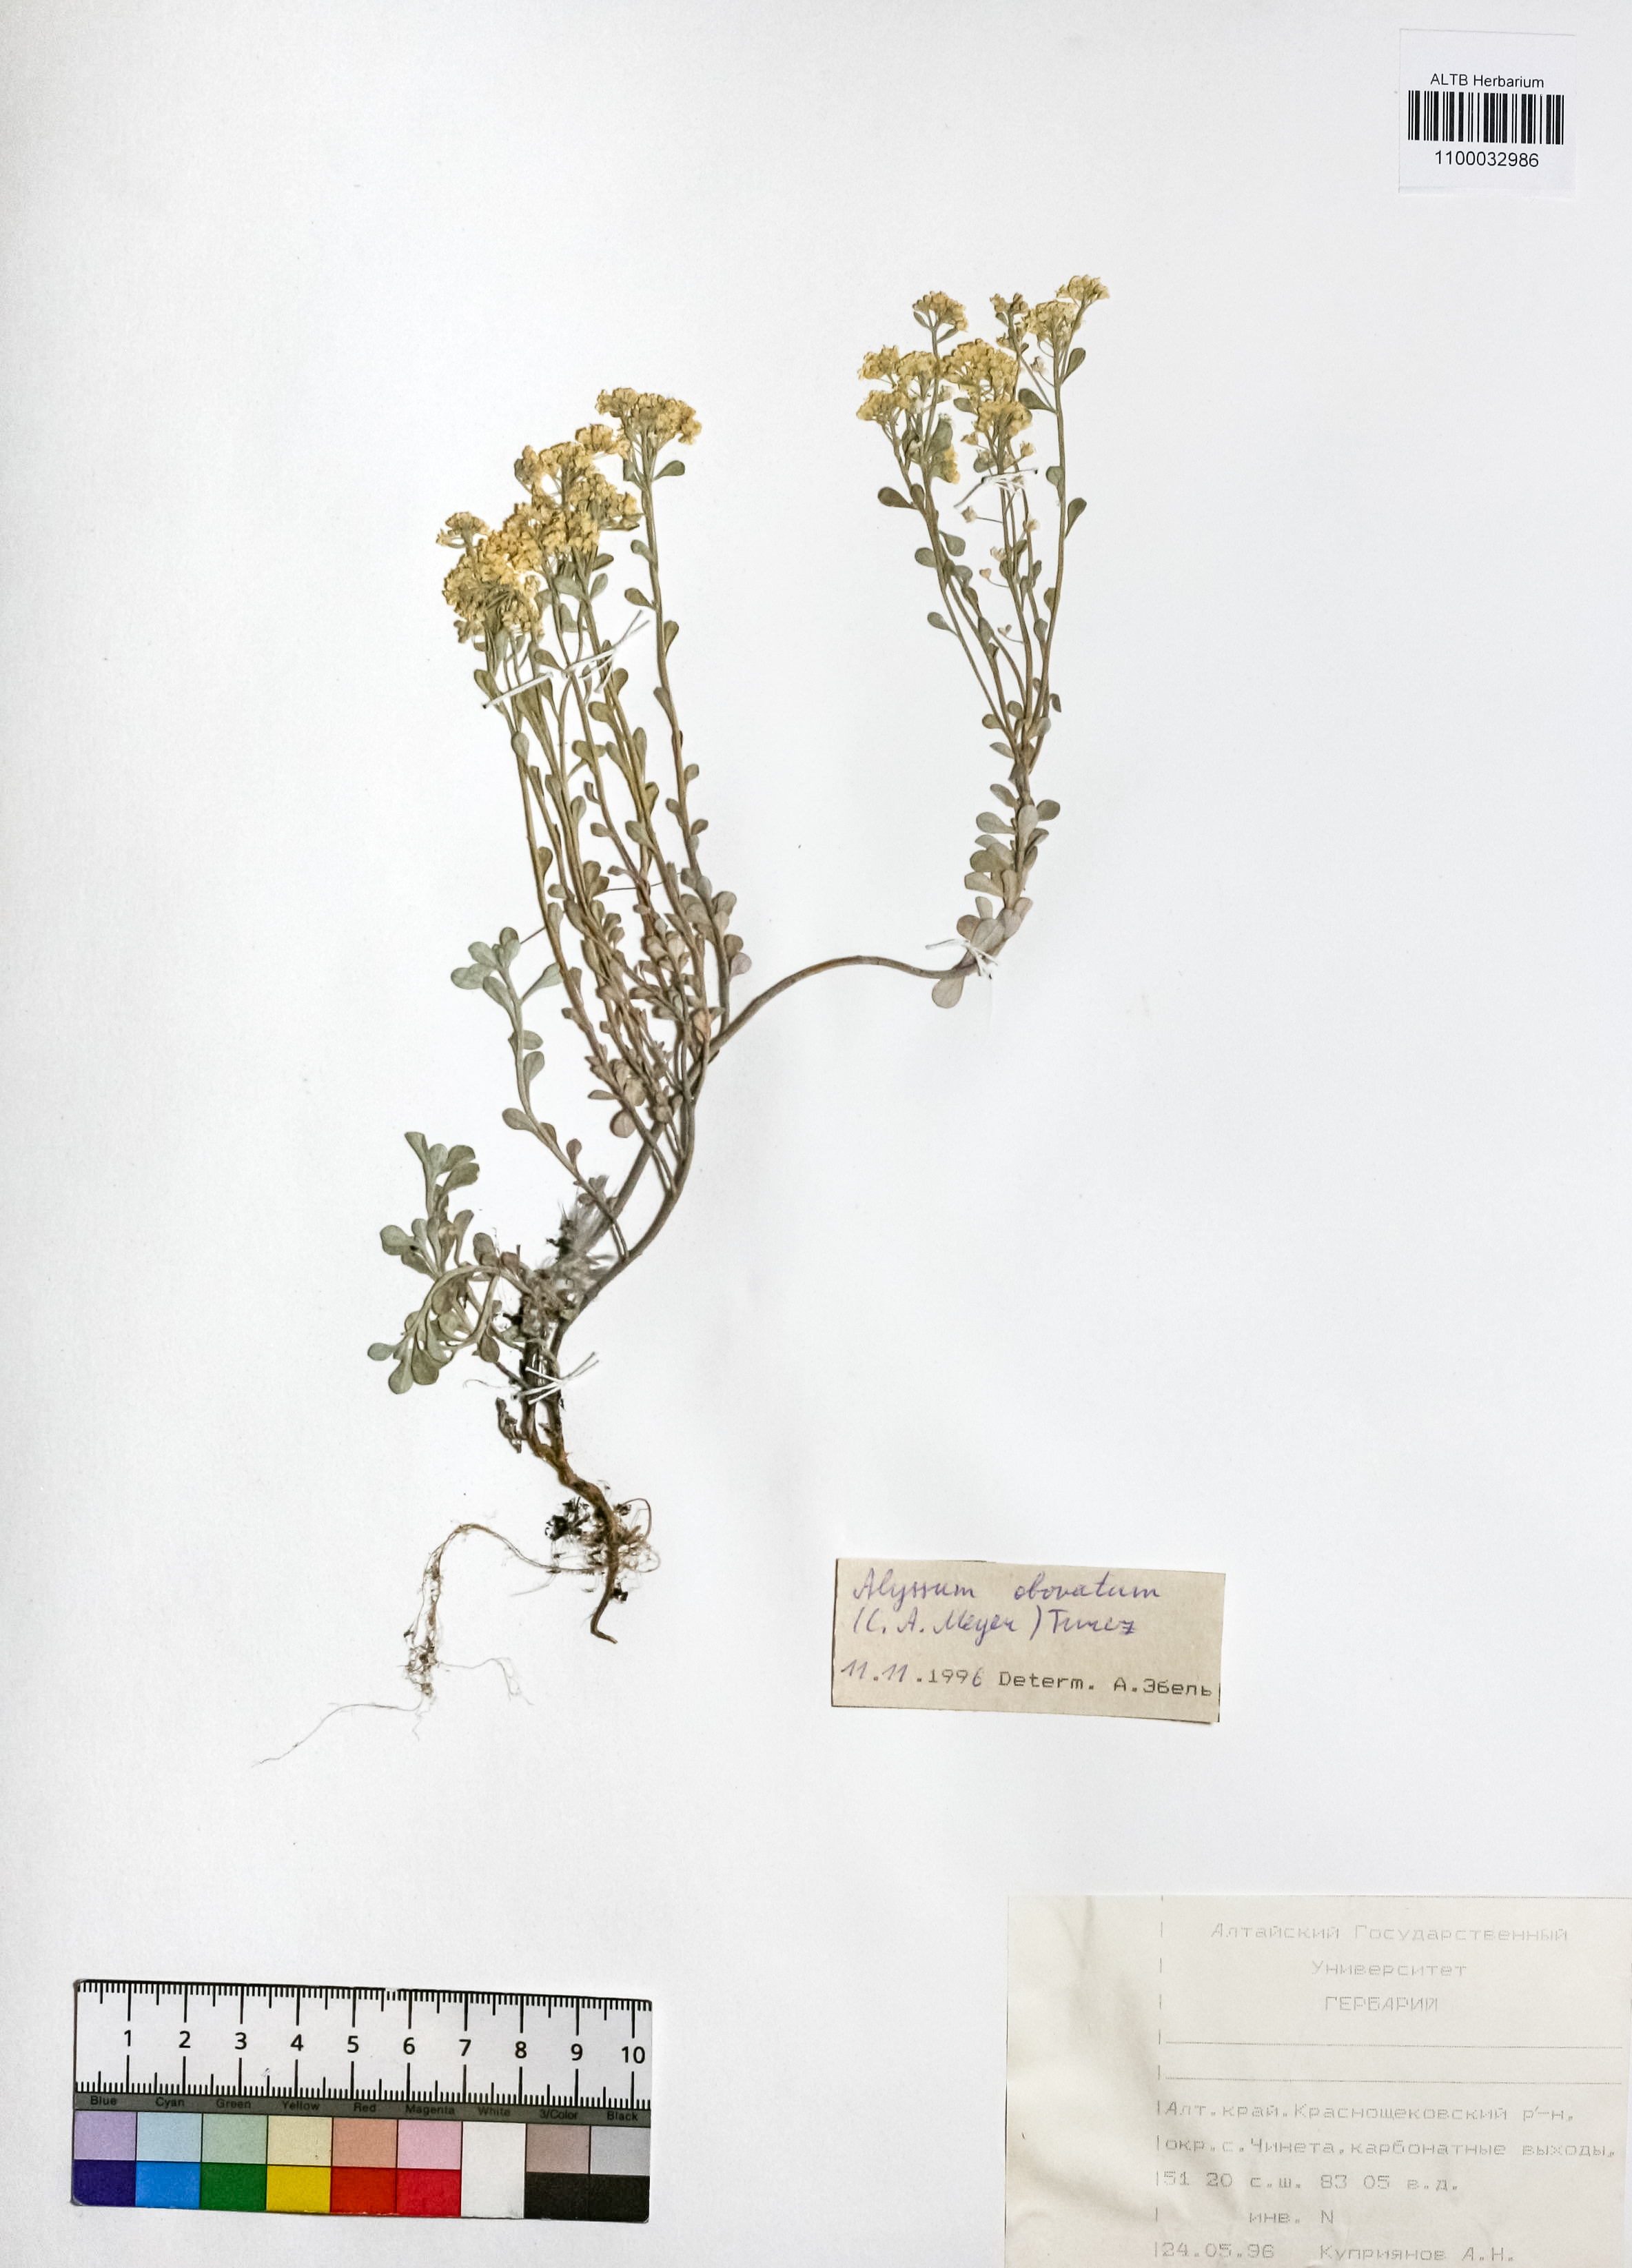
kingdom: Plantae
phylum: Tracheophyta
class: Magnoliopsida
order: Brassicales
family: Brassicaceae
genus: Odontarrhena
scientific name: Odontarrhena obovata
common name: American alyssum
